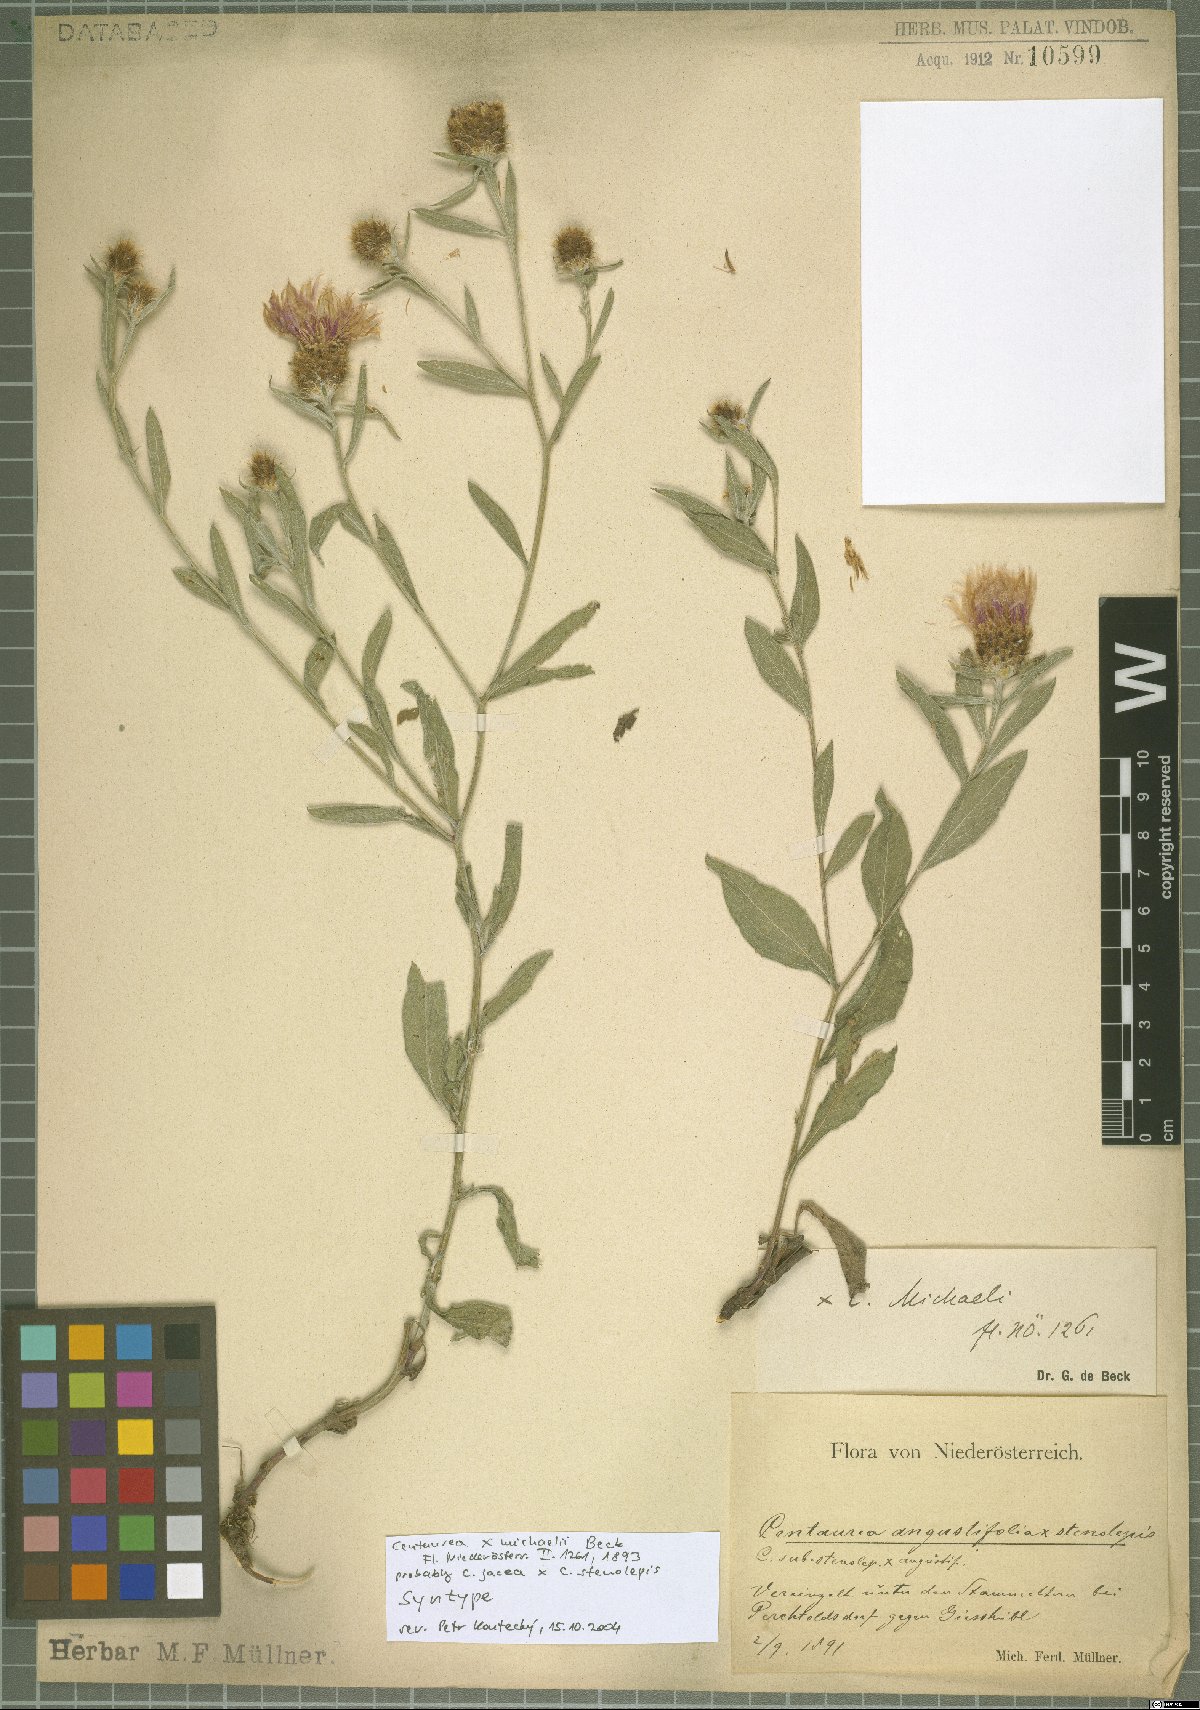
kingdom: Plantae
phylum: Tracheophyta
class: Magnoliopsida
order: Asterales
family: Asteraceae
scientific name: Asteraceae
